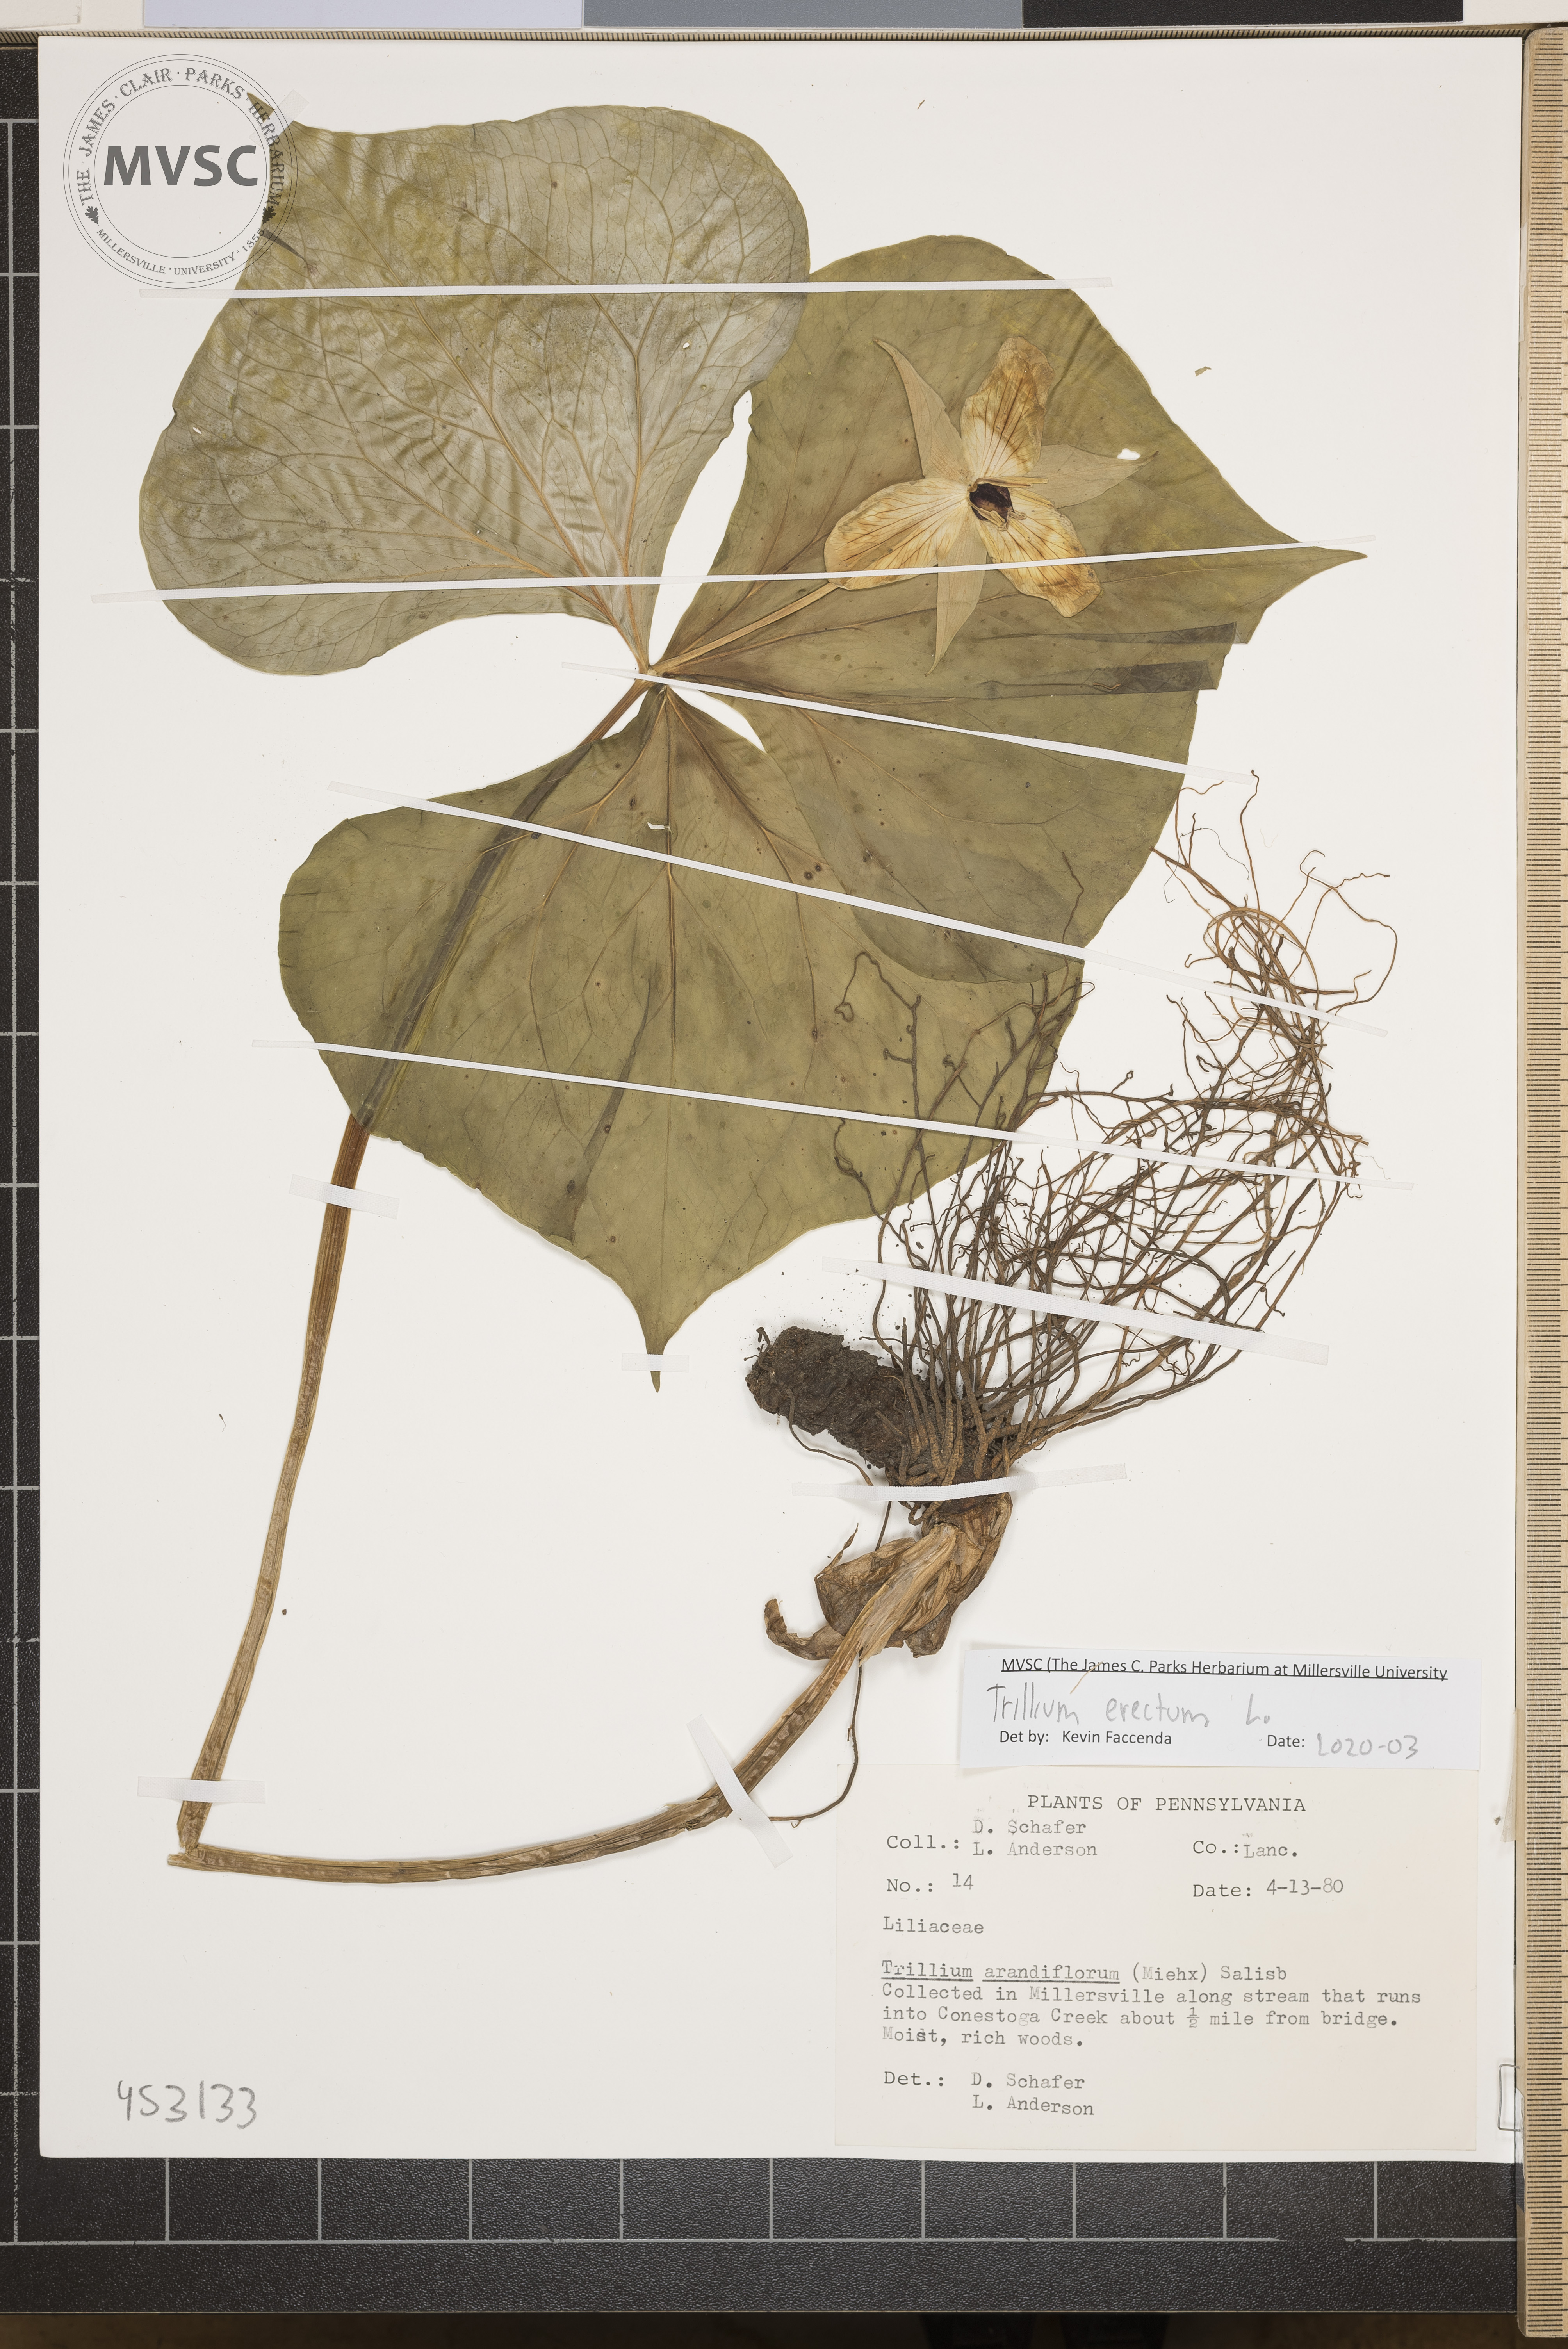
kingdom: Plantae
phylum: Tracheophyta
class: Liliopsida
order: Liliales
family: Melanthiaceae
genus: Trillium
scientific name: Trillium erectum
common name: Purple trillium
